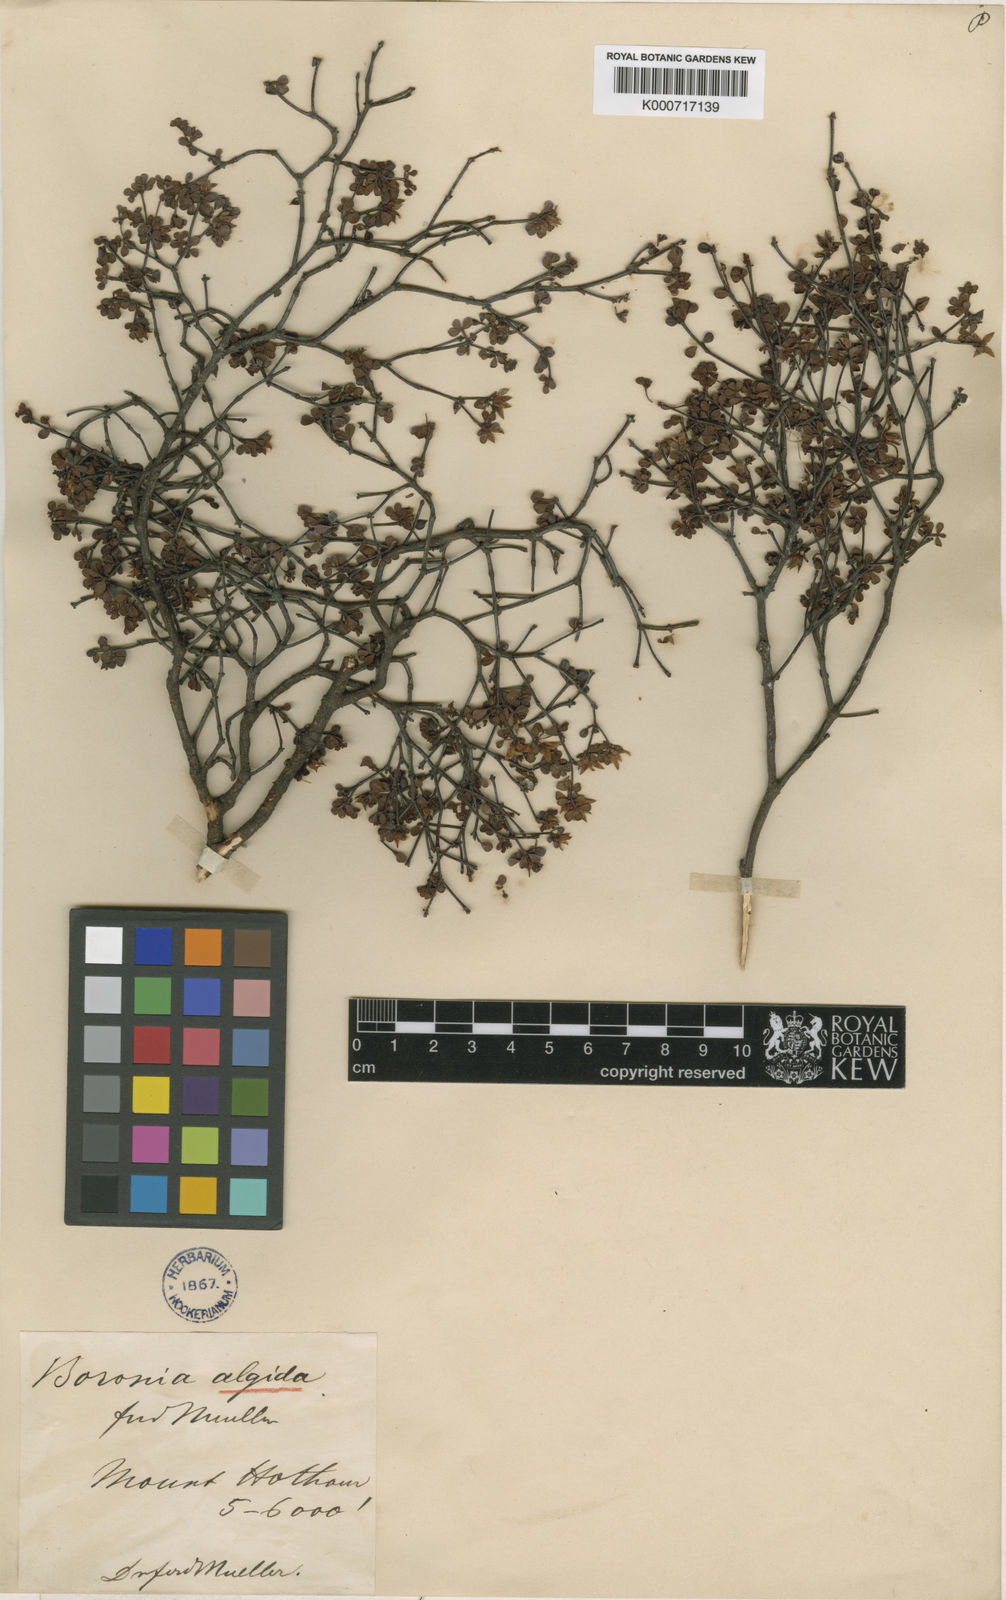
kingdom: Plantae
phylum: Tracheophyta
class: Magnoliopsida
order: Sapindales
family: Rutaceae
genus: Boronia
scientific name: Boronia algida
